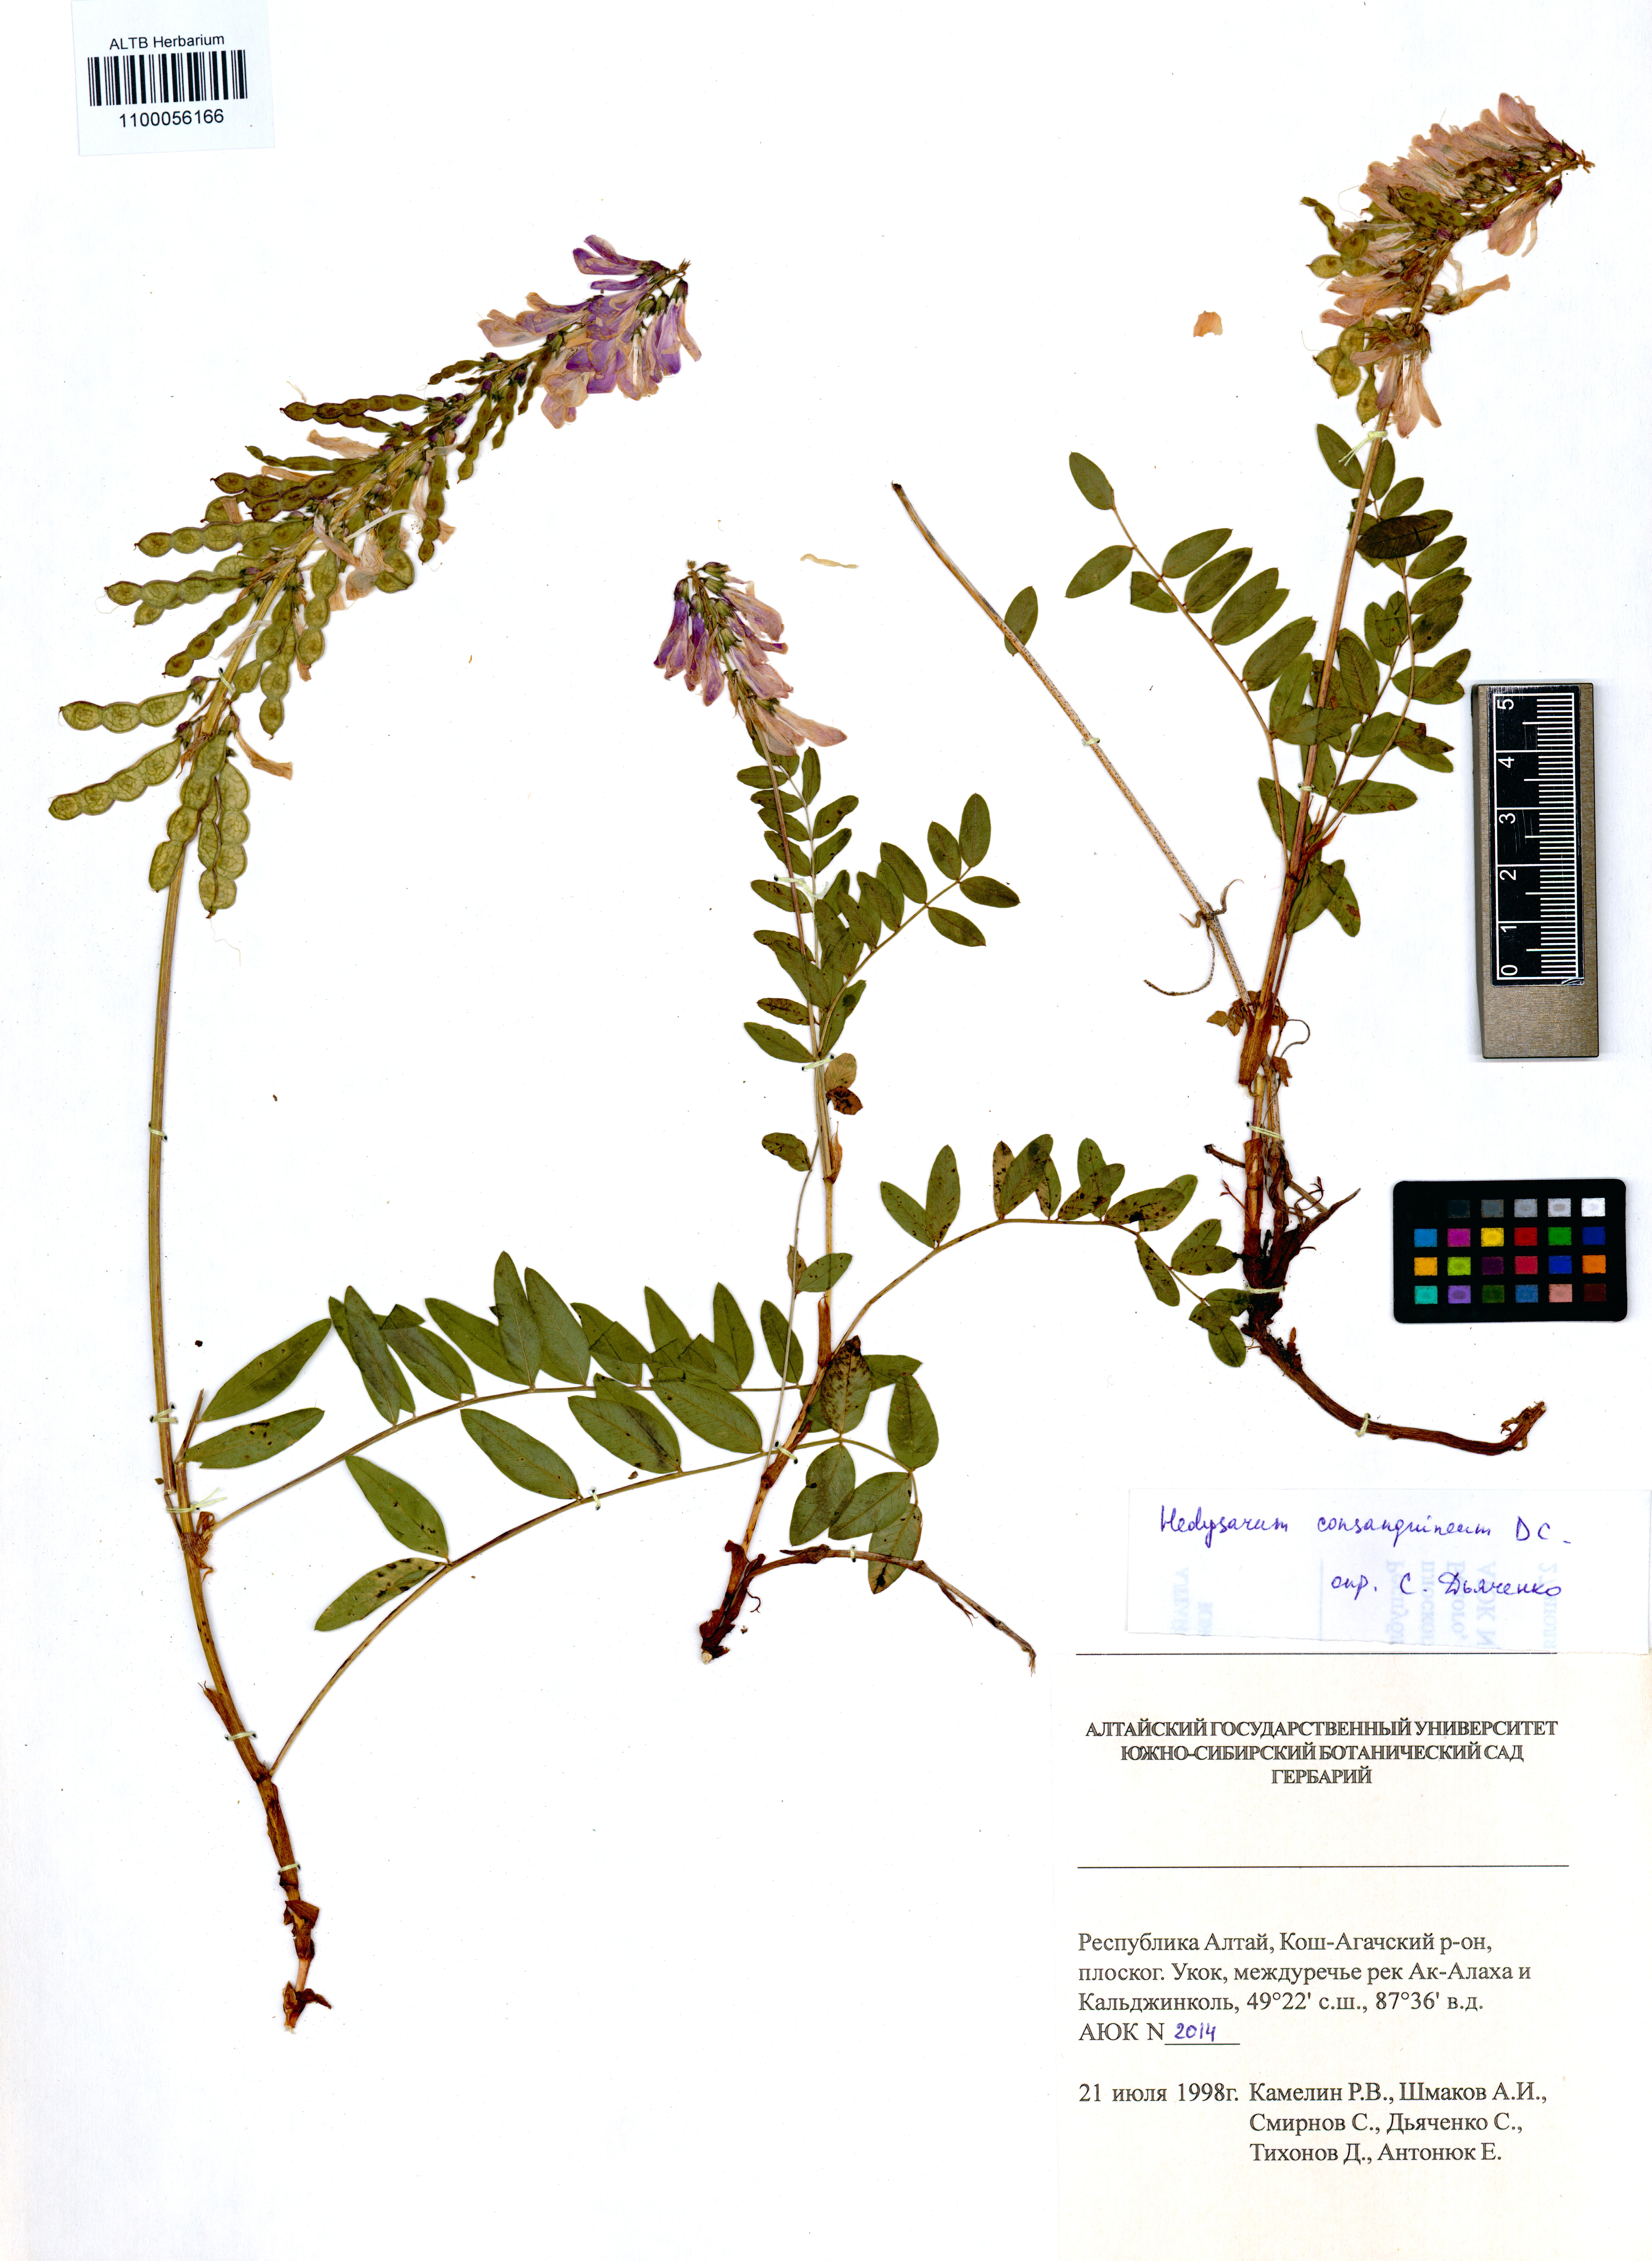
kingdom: Plantae
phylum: Tracheophyta
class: Magnoliopsida
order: Fabales
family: Fabaceae
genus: Hedysarum
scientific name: Hedysarum consanguineum
